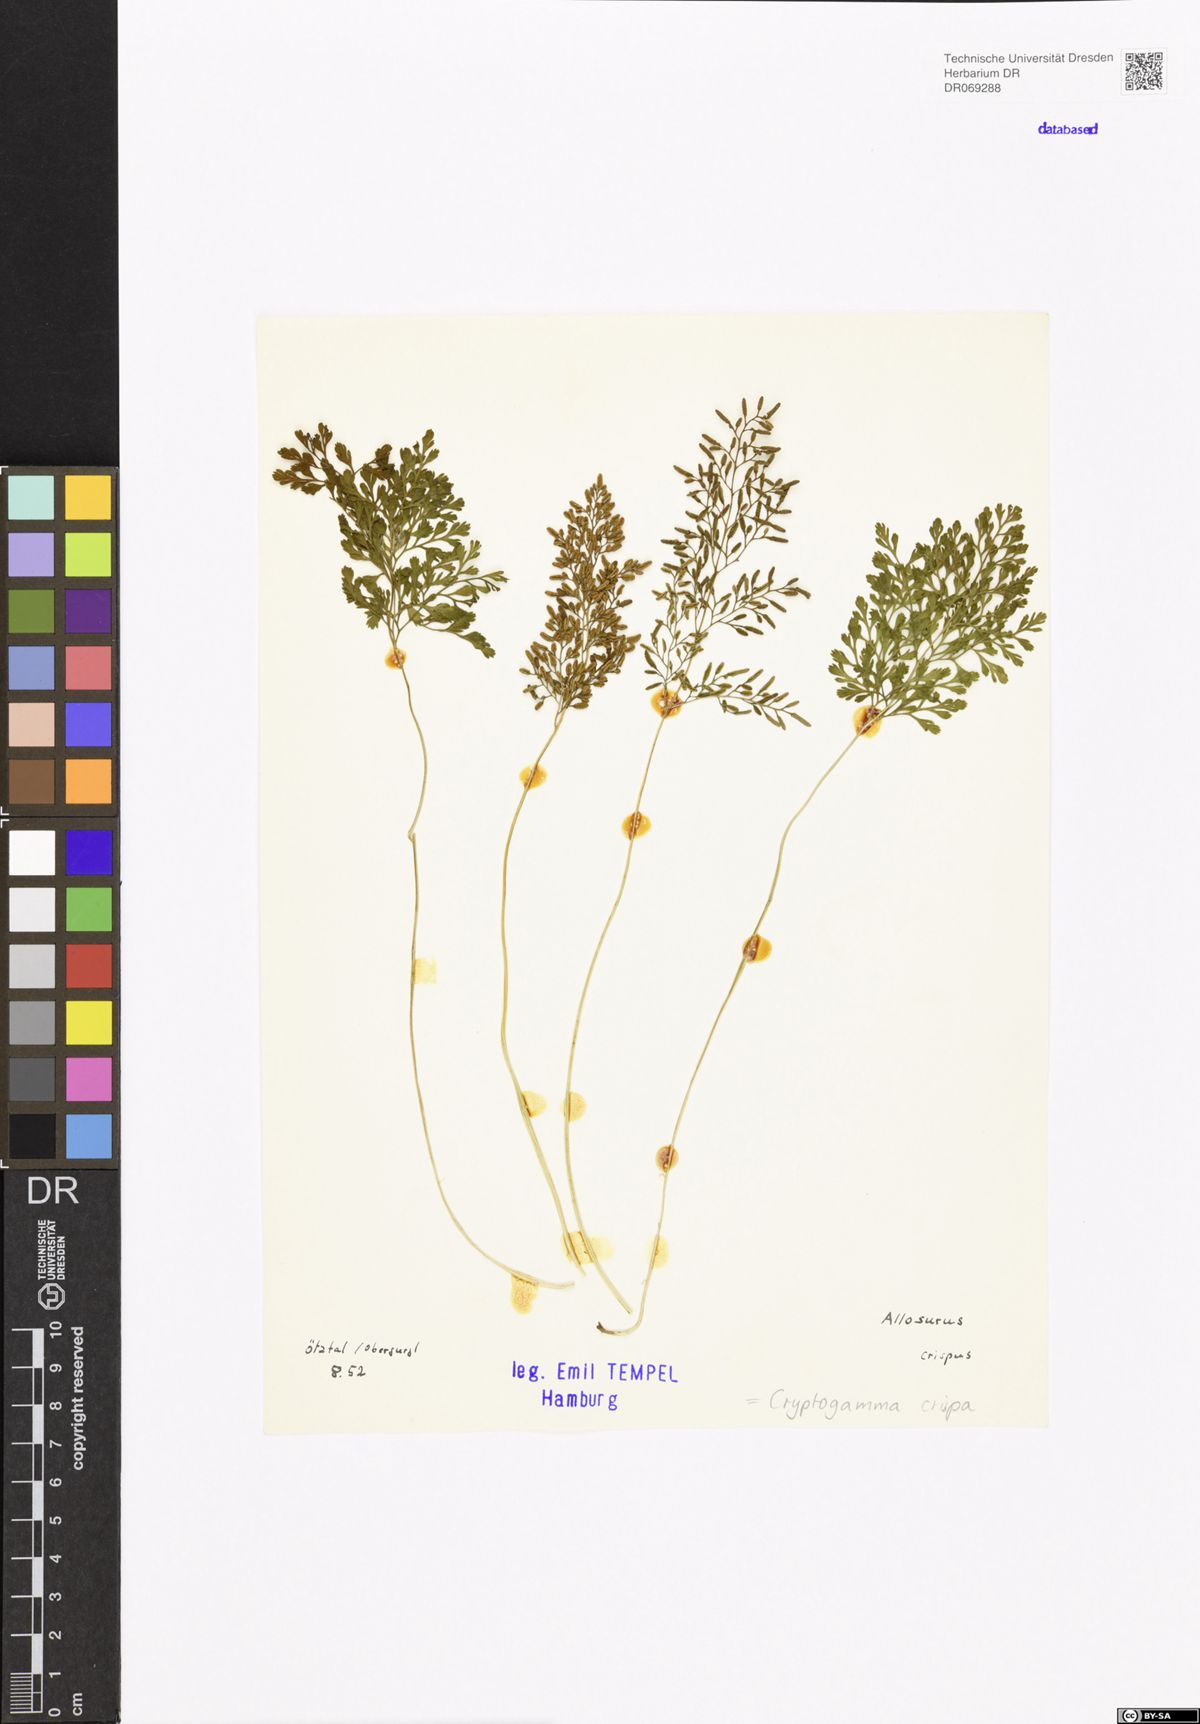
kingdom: Plantae
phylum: Tracheophyta
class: Polypodiopsida
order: Polypodiales
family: Pteridaceae
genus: Cryptogramma
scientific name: Cryptogramma crispa
